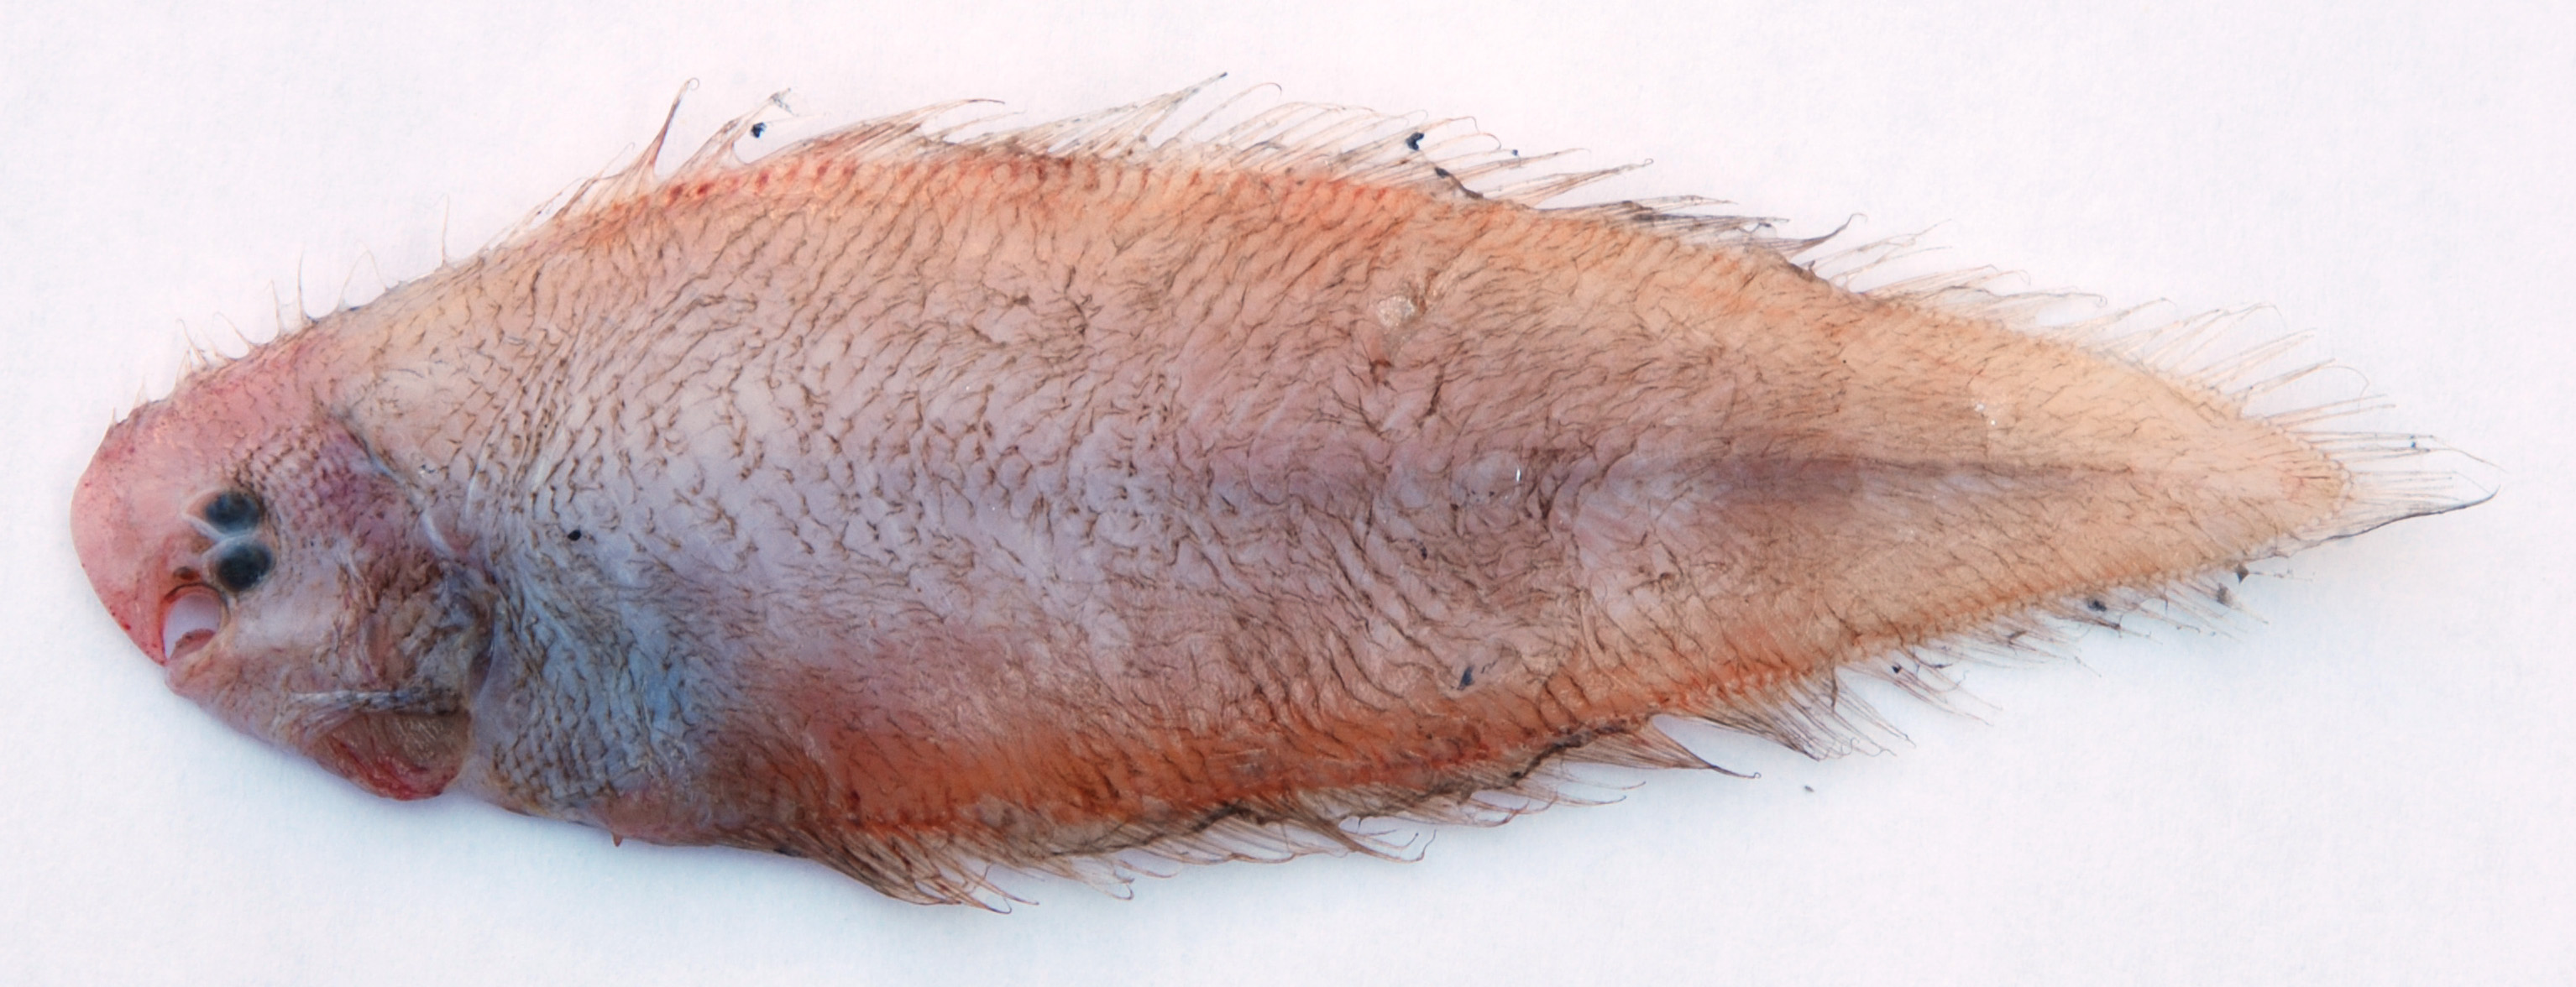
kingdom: Animalia
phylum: Chordata
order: Pleuronectiformes
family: Cynoglossidae
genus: Cynoglossus
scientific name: Cynoglossus
